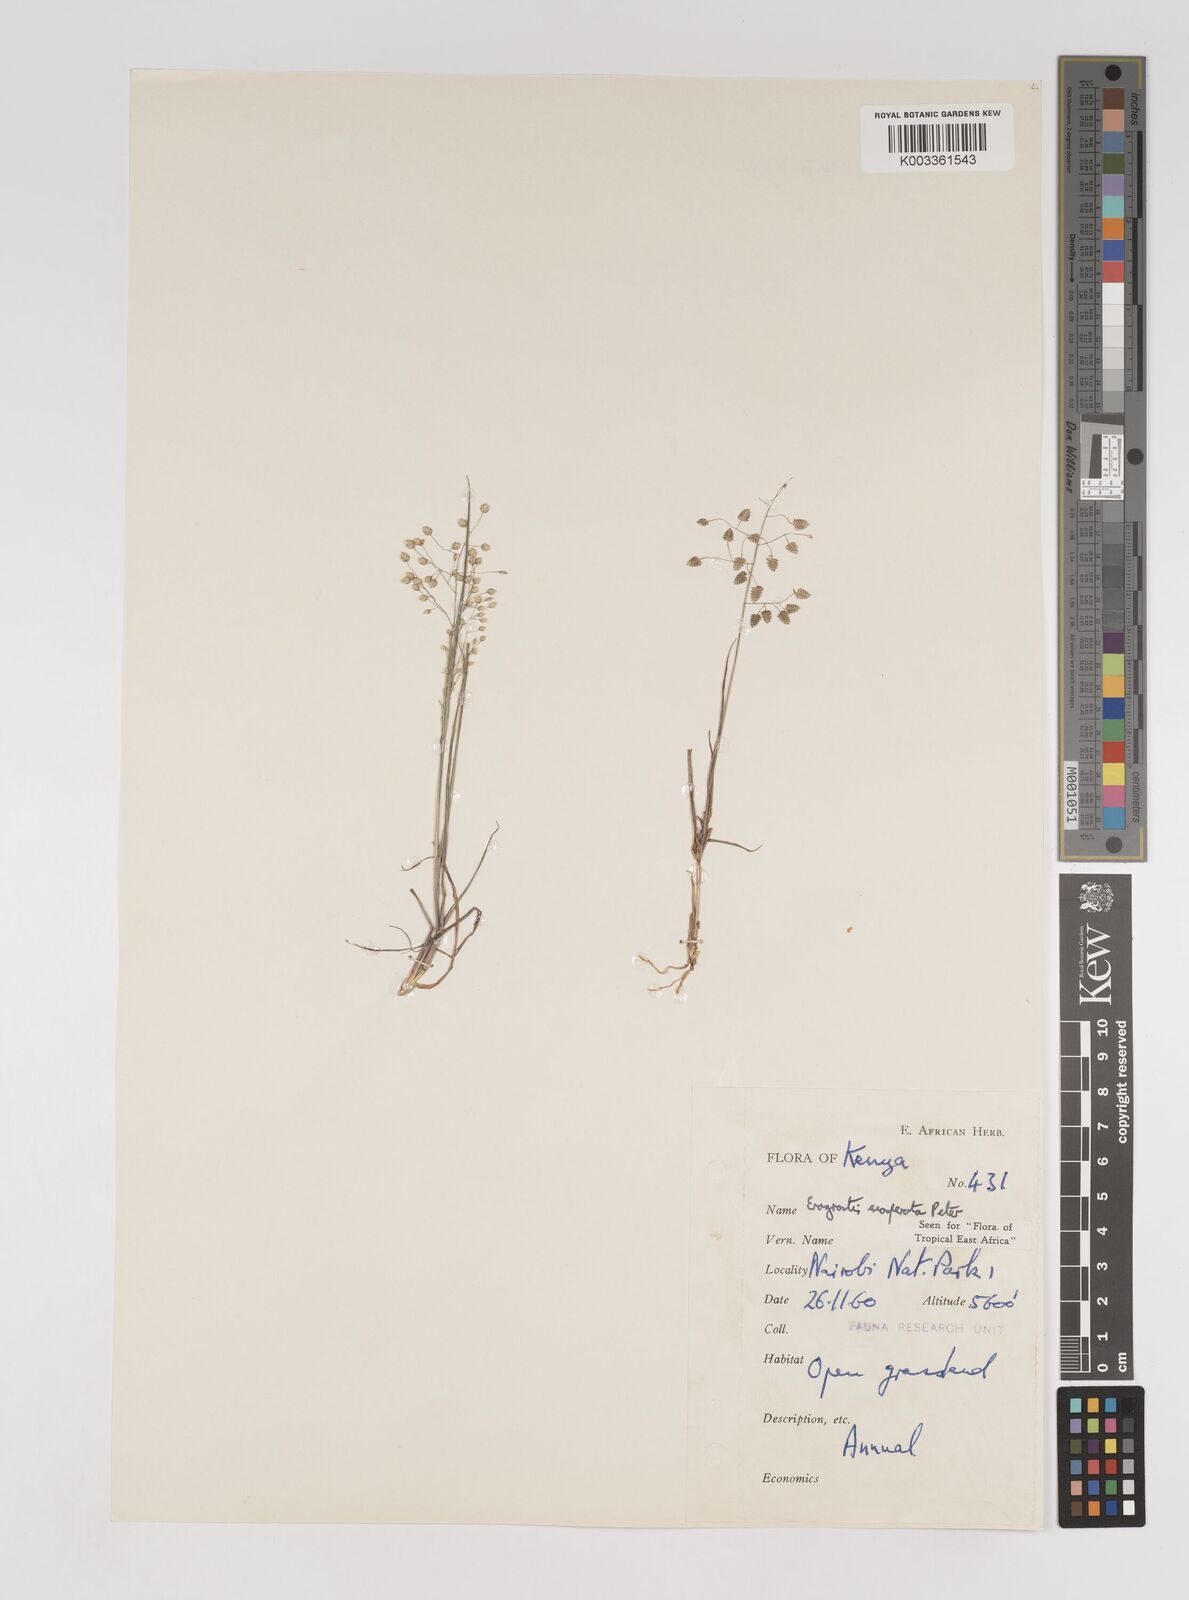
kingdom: Plantae
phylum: Tracheophyta
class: Liliopsida
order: Poales
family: Poaceae
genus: Eragrostis
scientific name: Eragrostis exasperata
